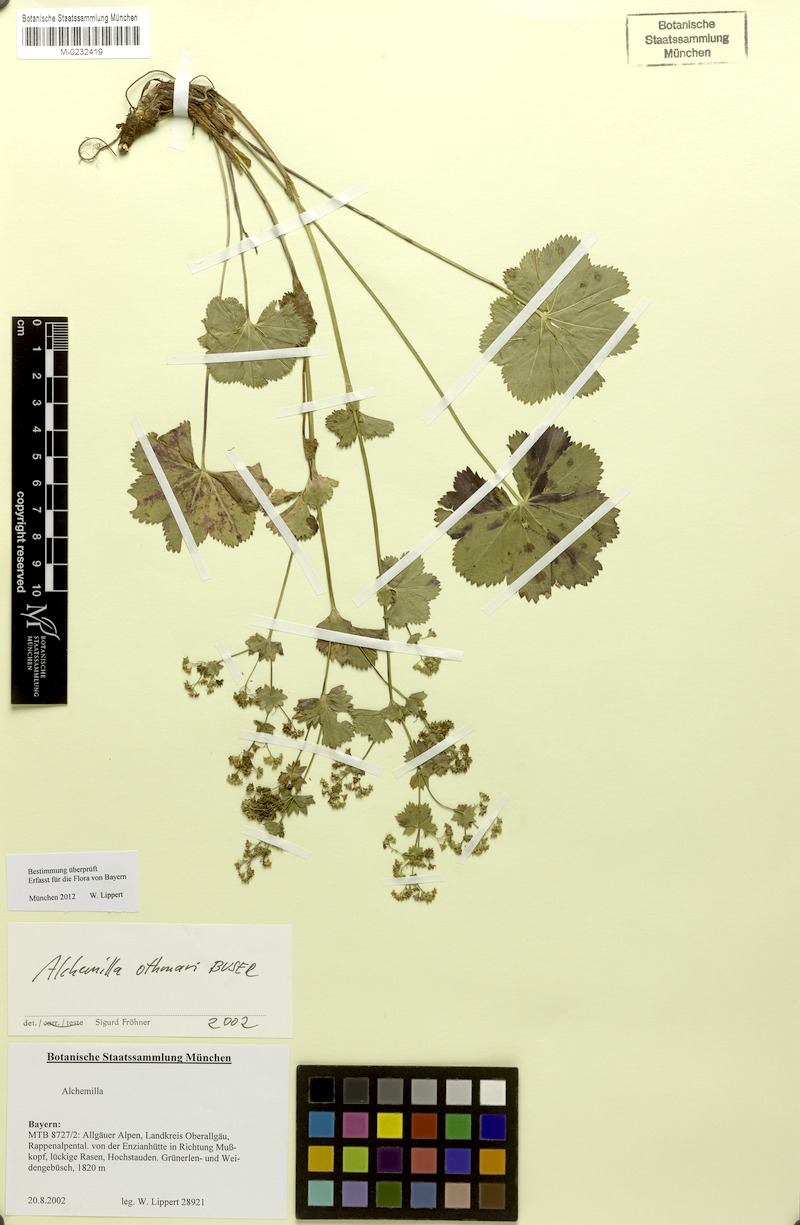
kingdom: Plantae
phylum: Tracheophyta
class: Magnoliopsida
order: Rosales
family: Rosaceae
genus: Alchemilla
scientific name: Alchemilla othmarii
